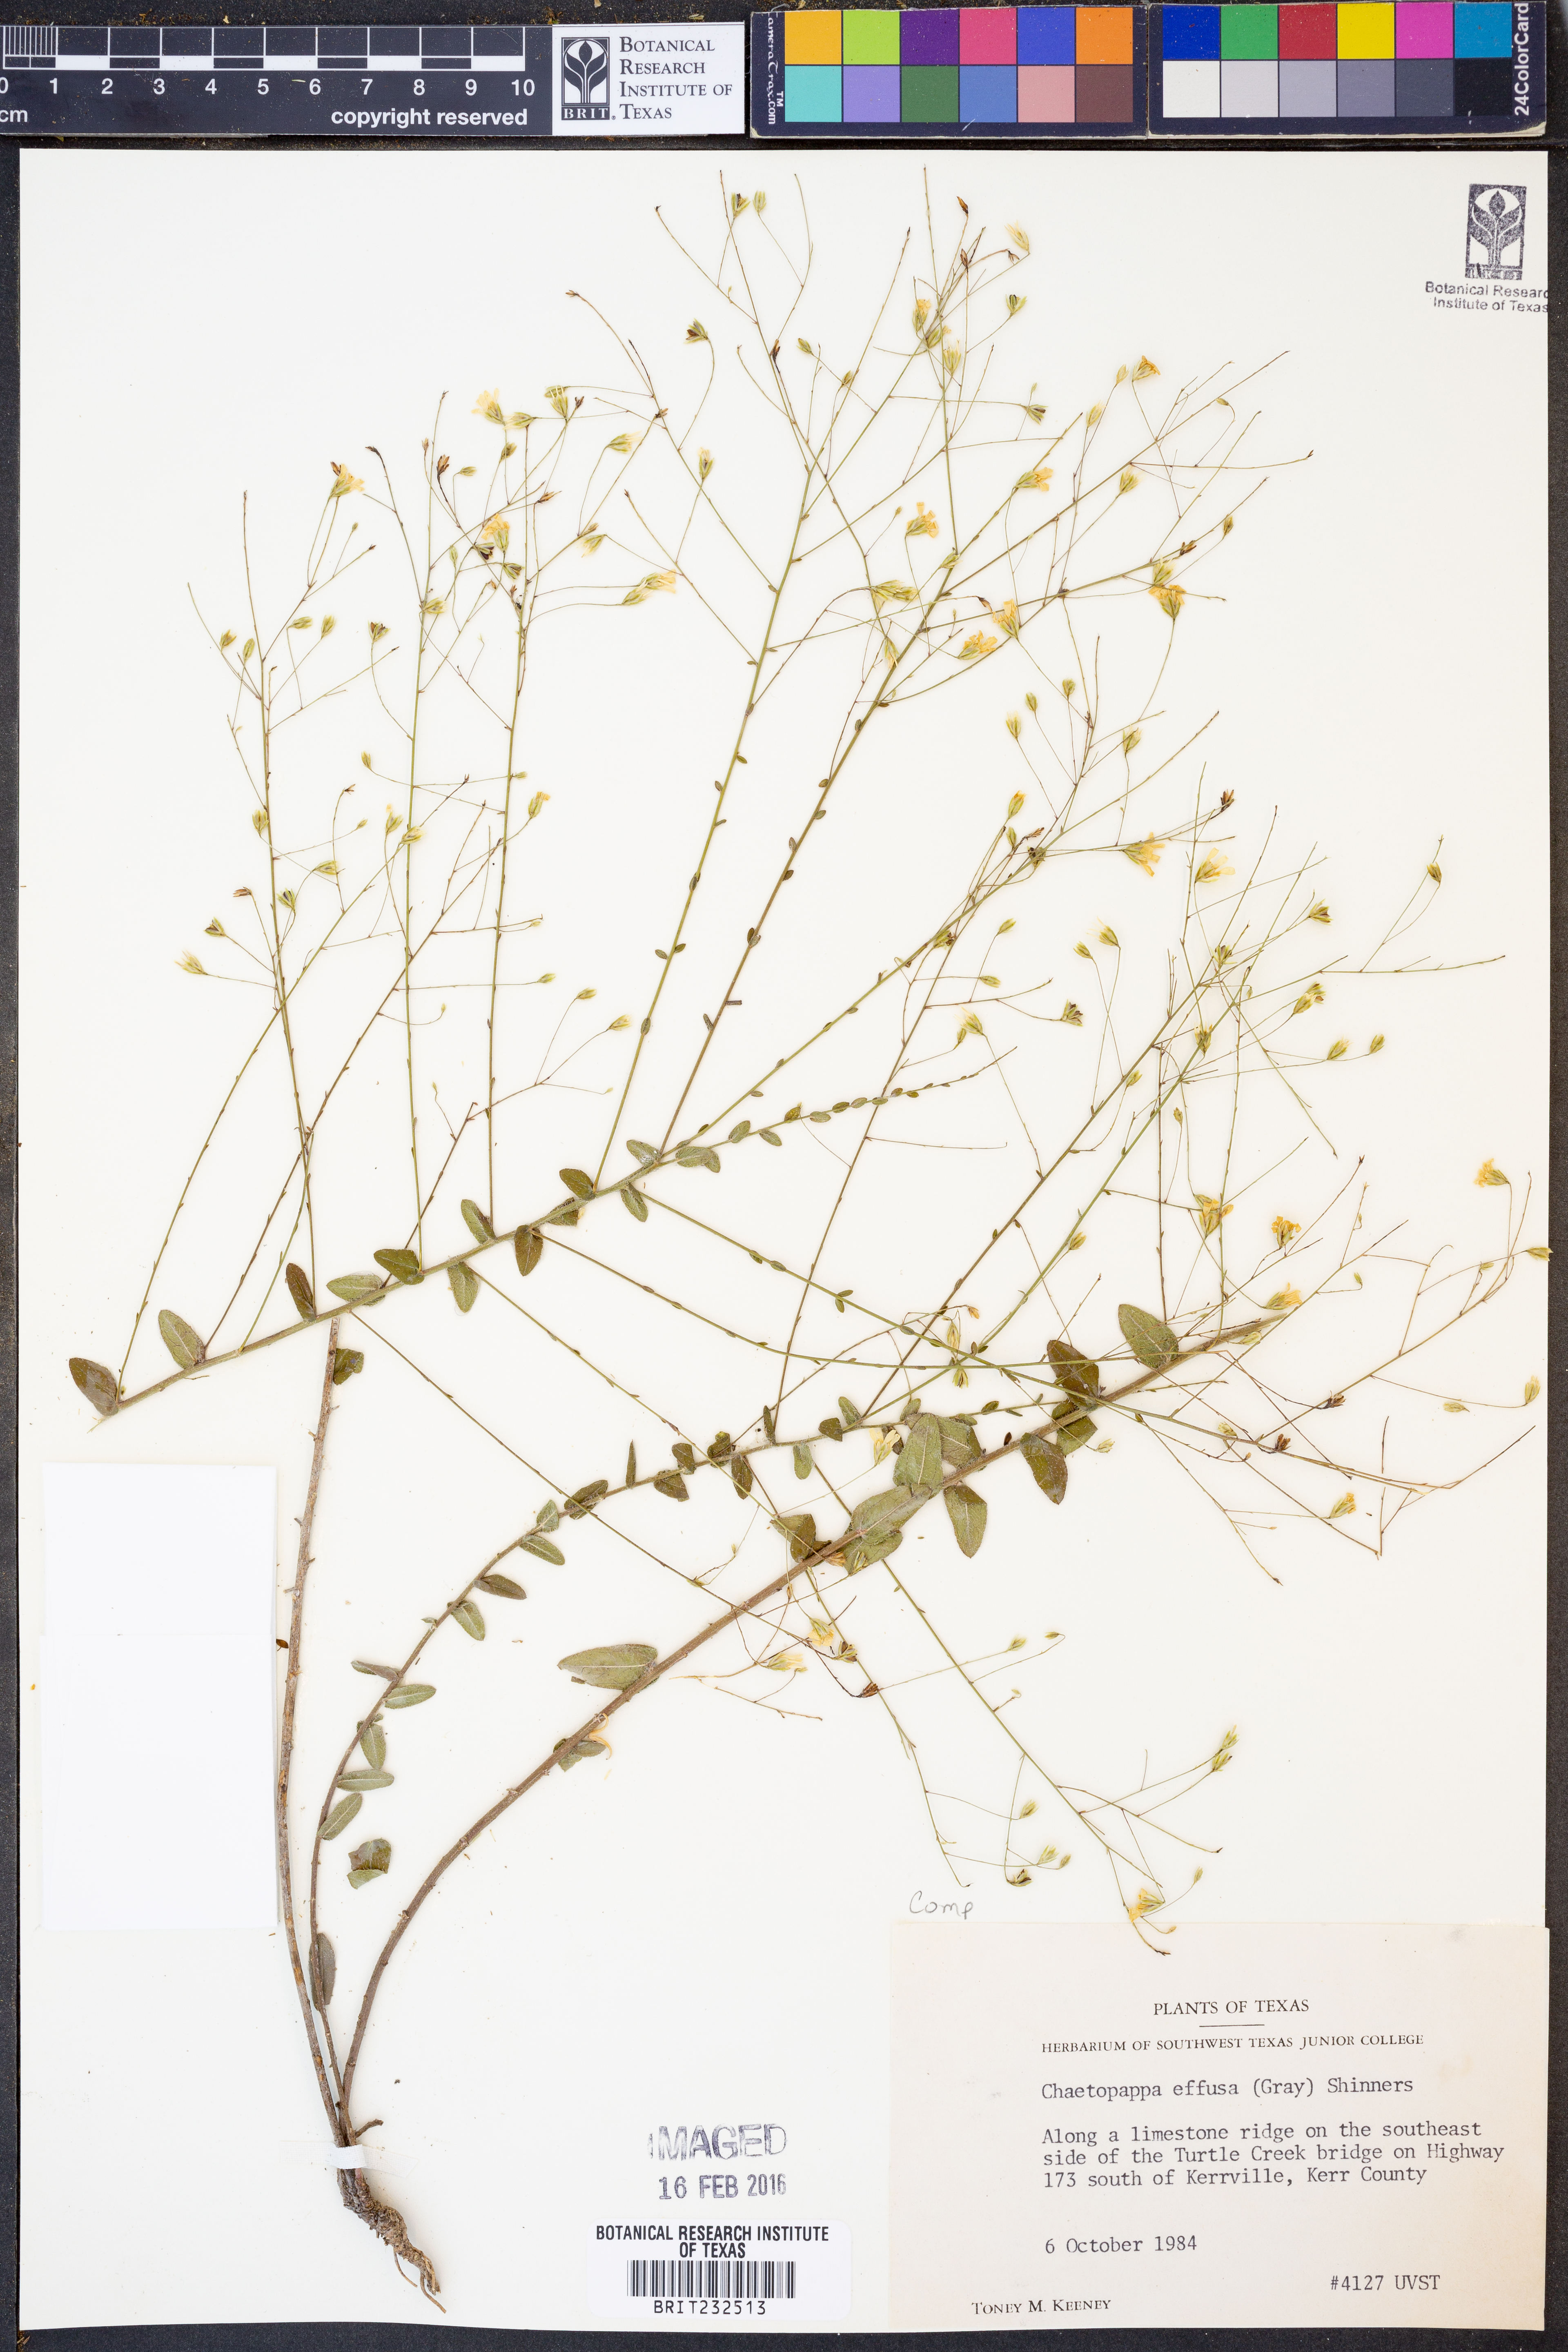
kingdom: Plantae
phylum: Tracheophyta
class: Magnoliopsida
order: Asterales
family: Asteraceae
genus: Chaetopappa
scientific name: Chaetopappa effusa
